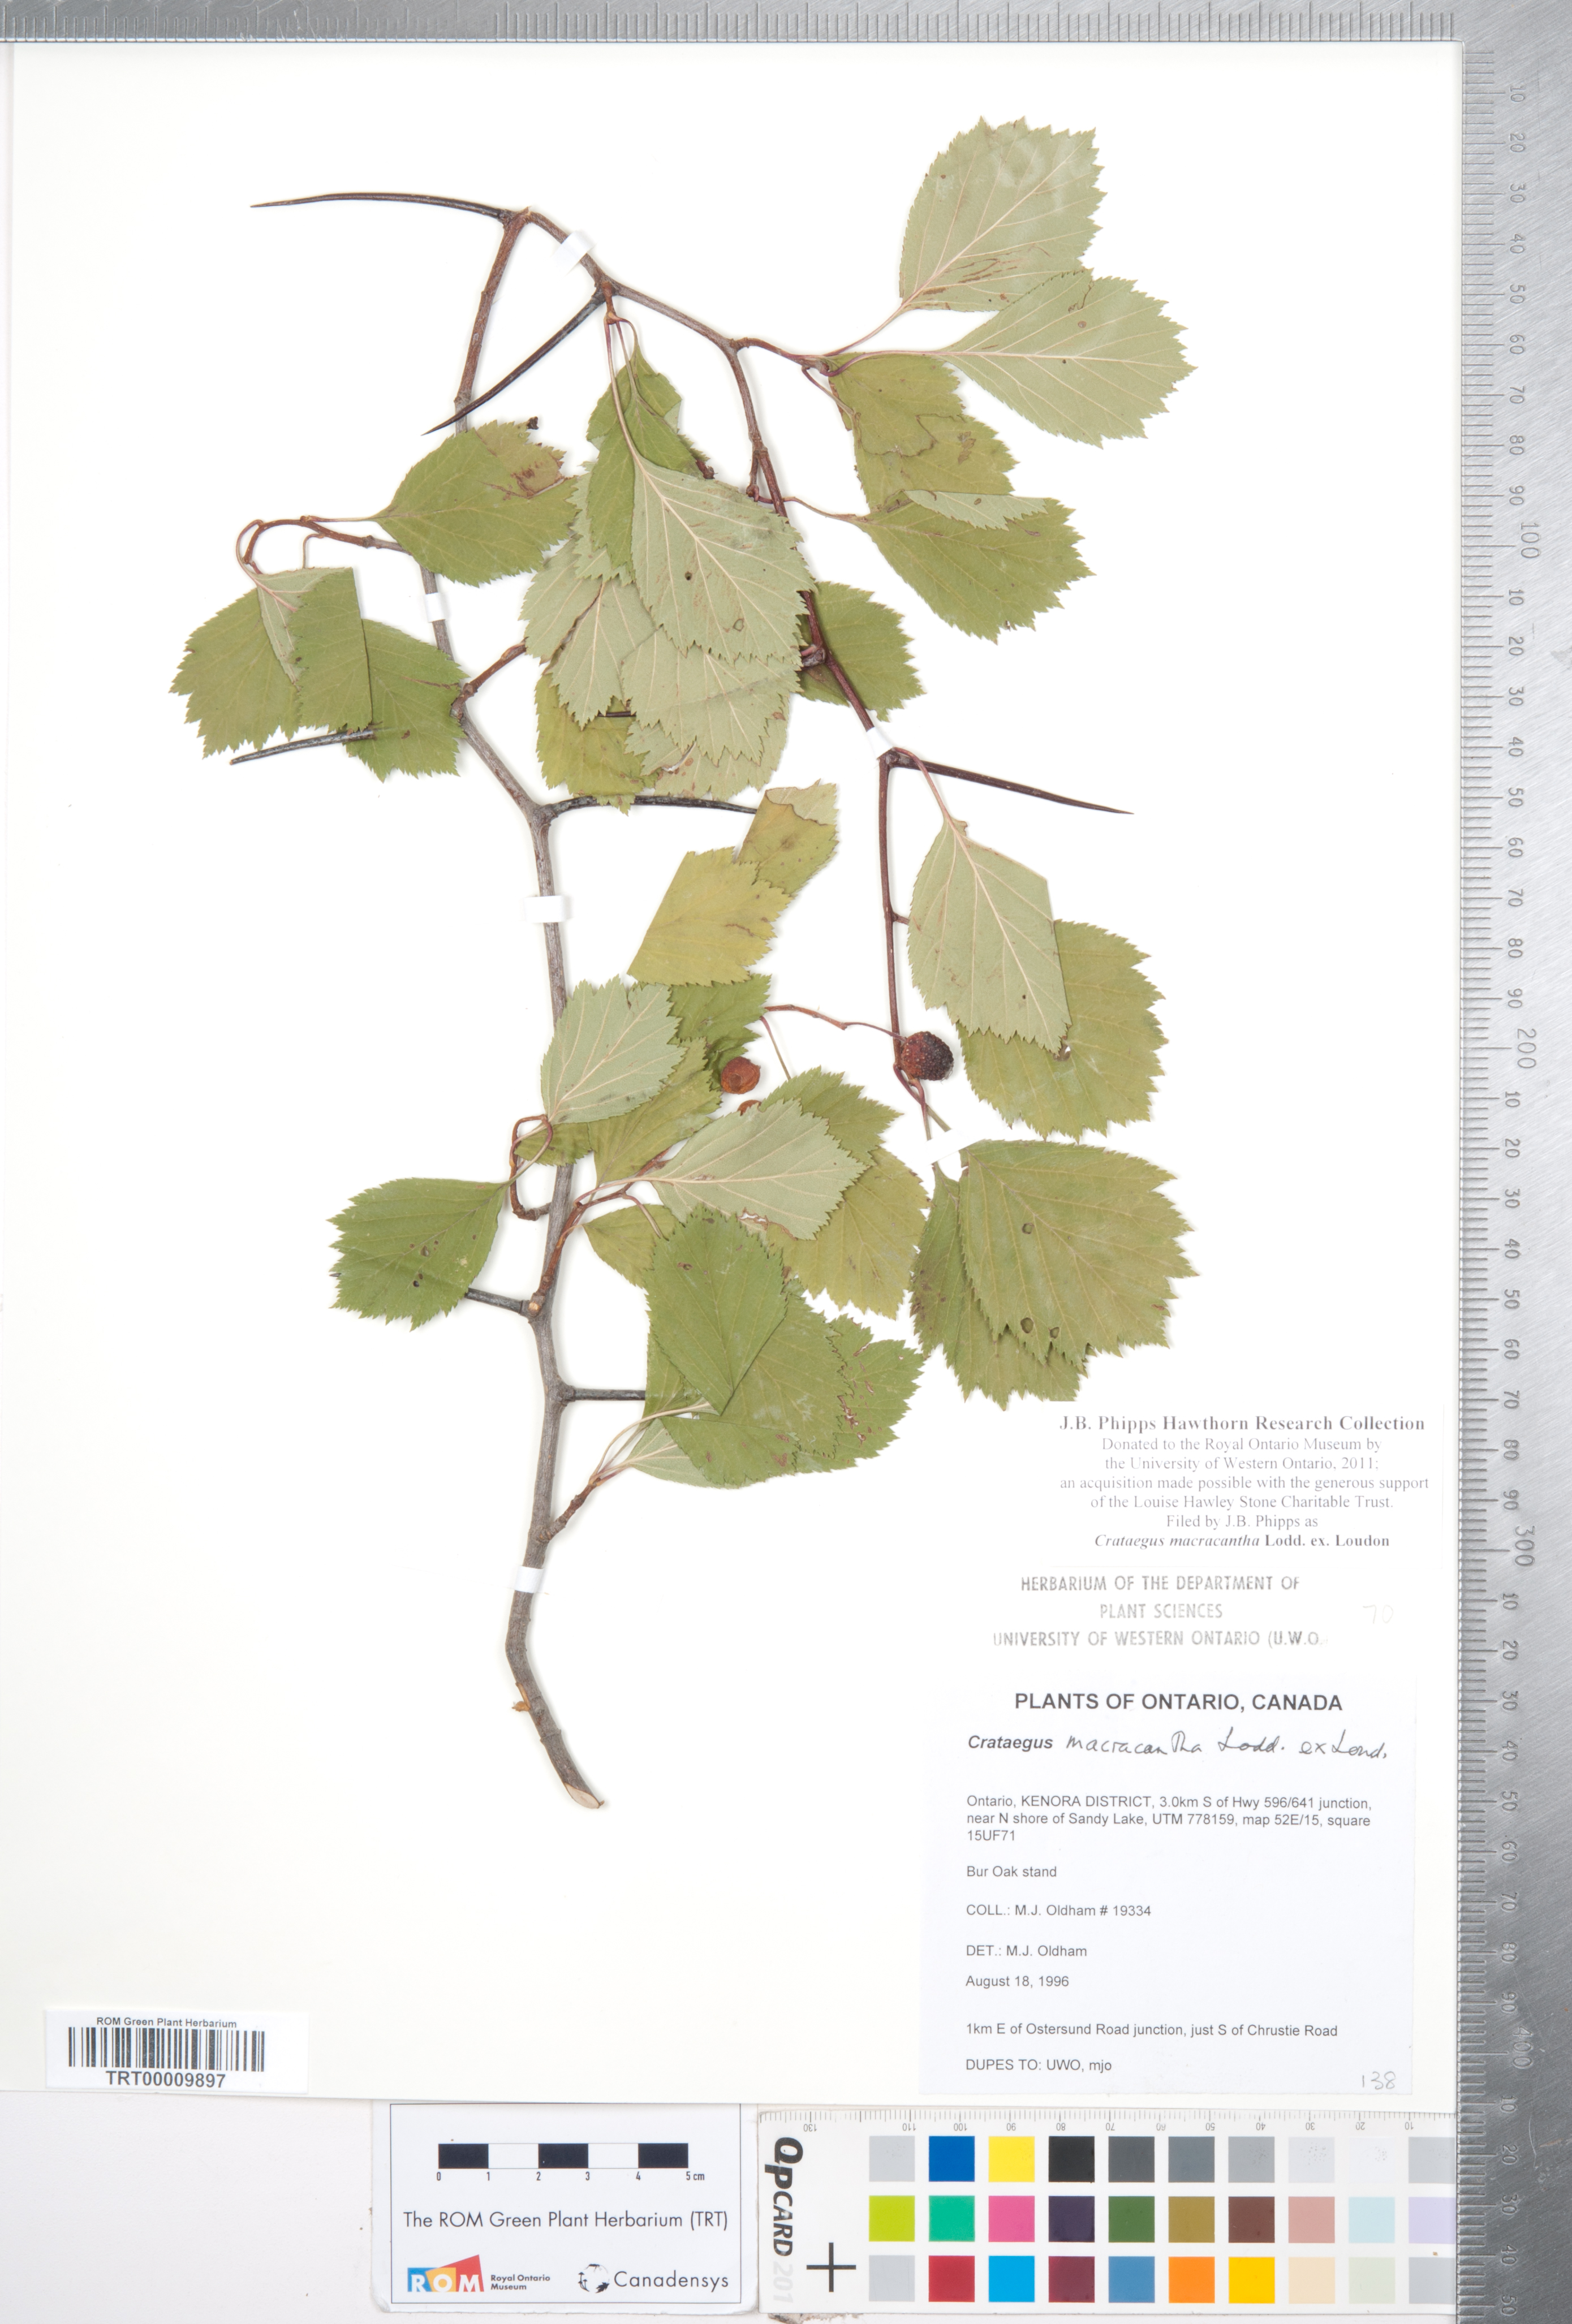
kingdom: Plantae
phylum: Tracheophyta
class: Magnoliopsida
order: Rosales
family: Rosaceae
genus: Crataegus
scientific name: Crataegus macracantha
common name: Large-thorn hawthorn
